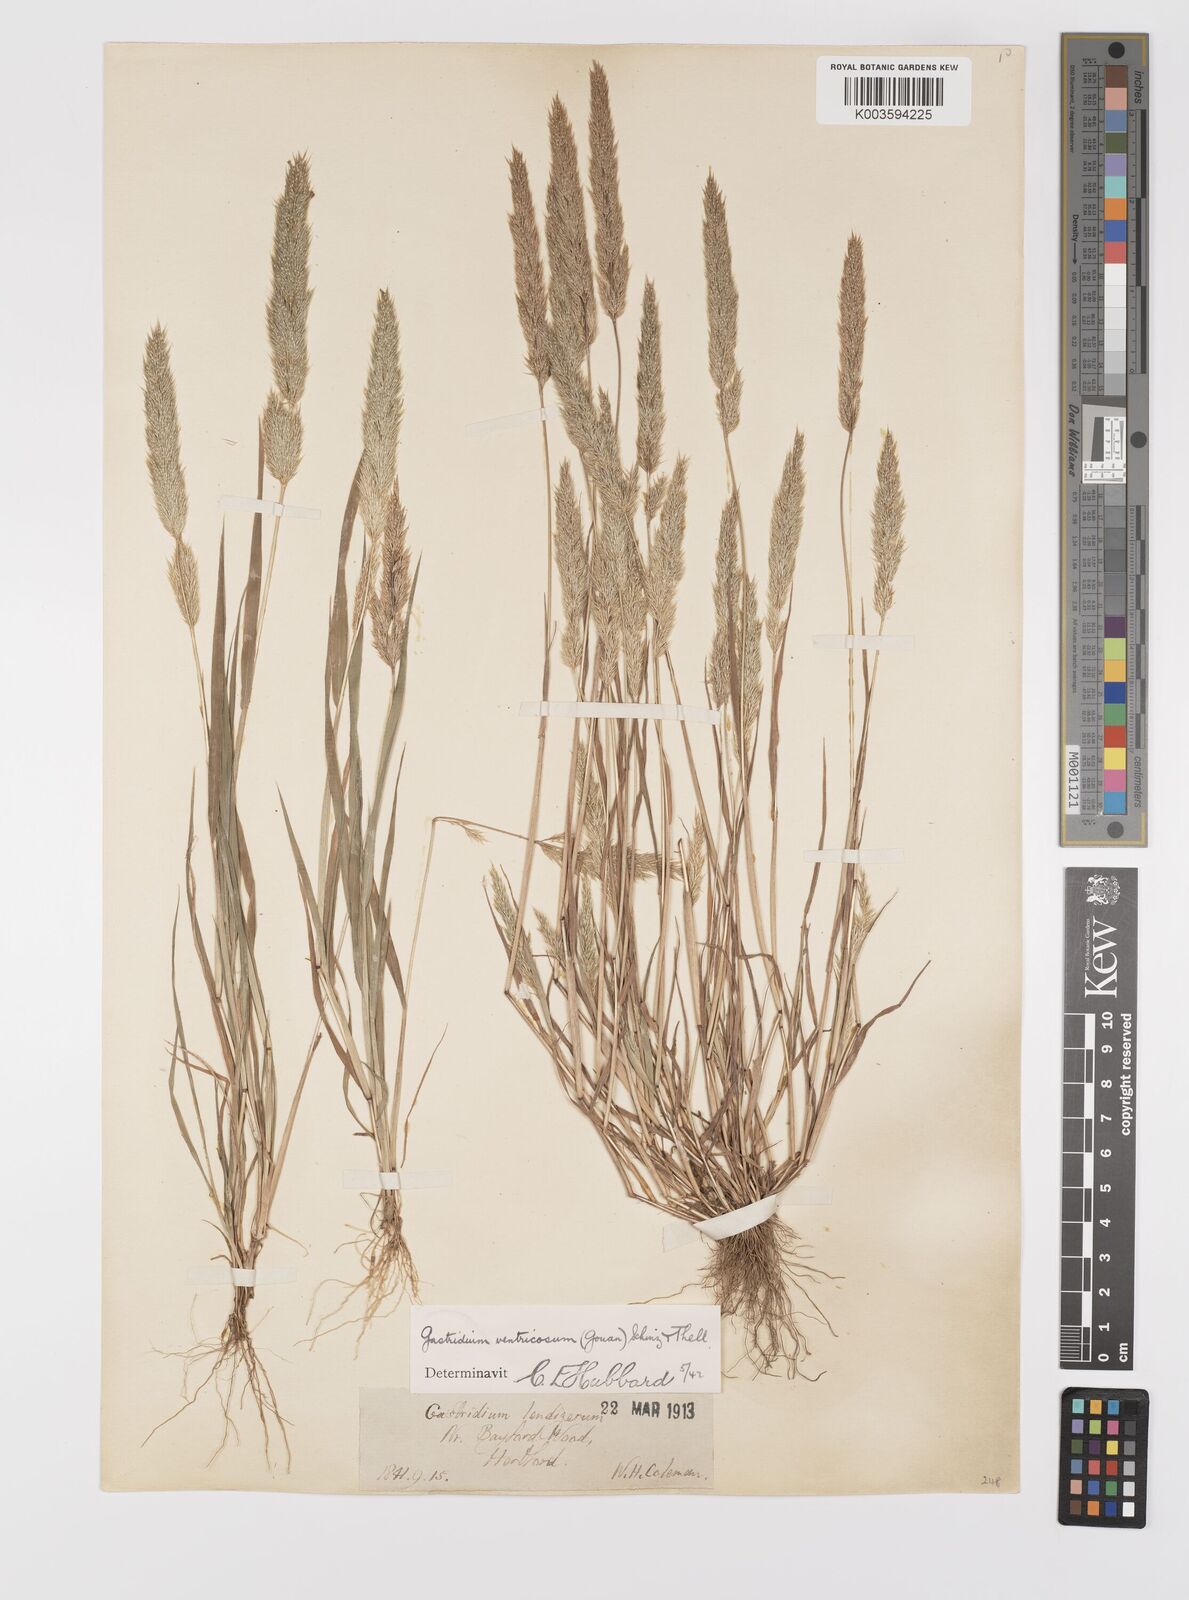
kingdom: Plantae
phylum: Tracheophyta
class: Liliopsida
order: Poales
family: Poaceae
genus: Gastridium
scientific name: Gastridium ventricosum
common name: Nit-grass
